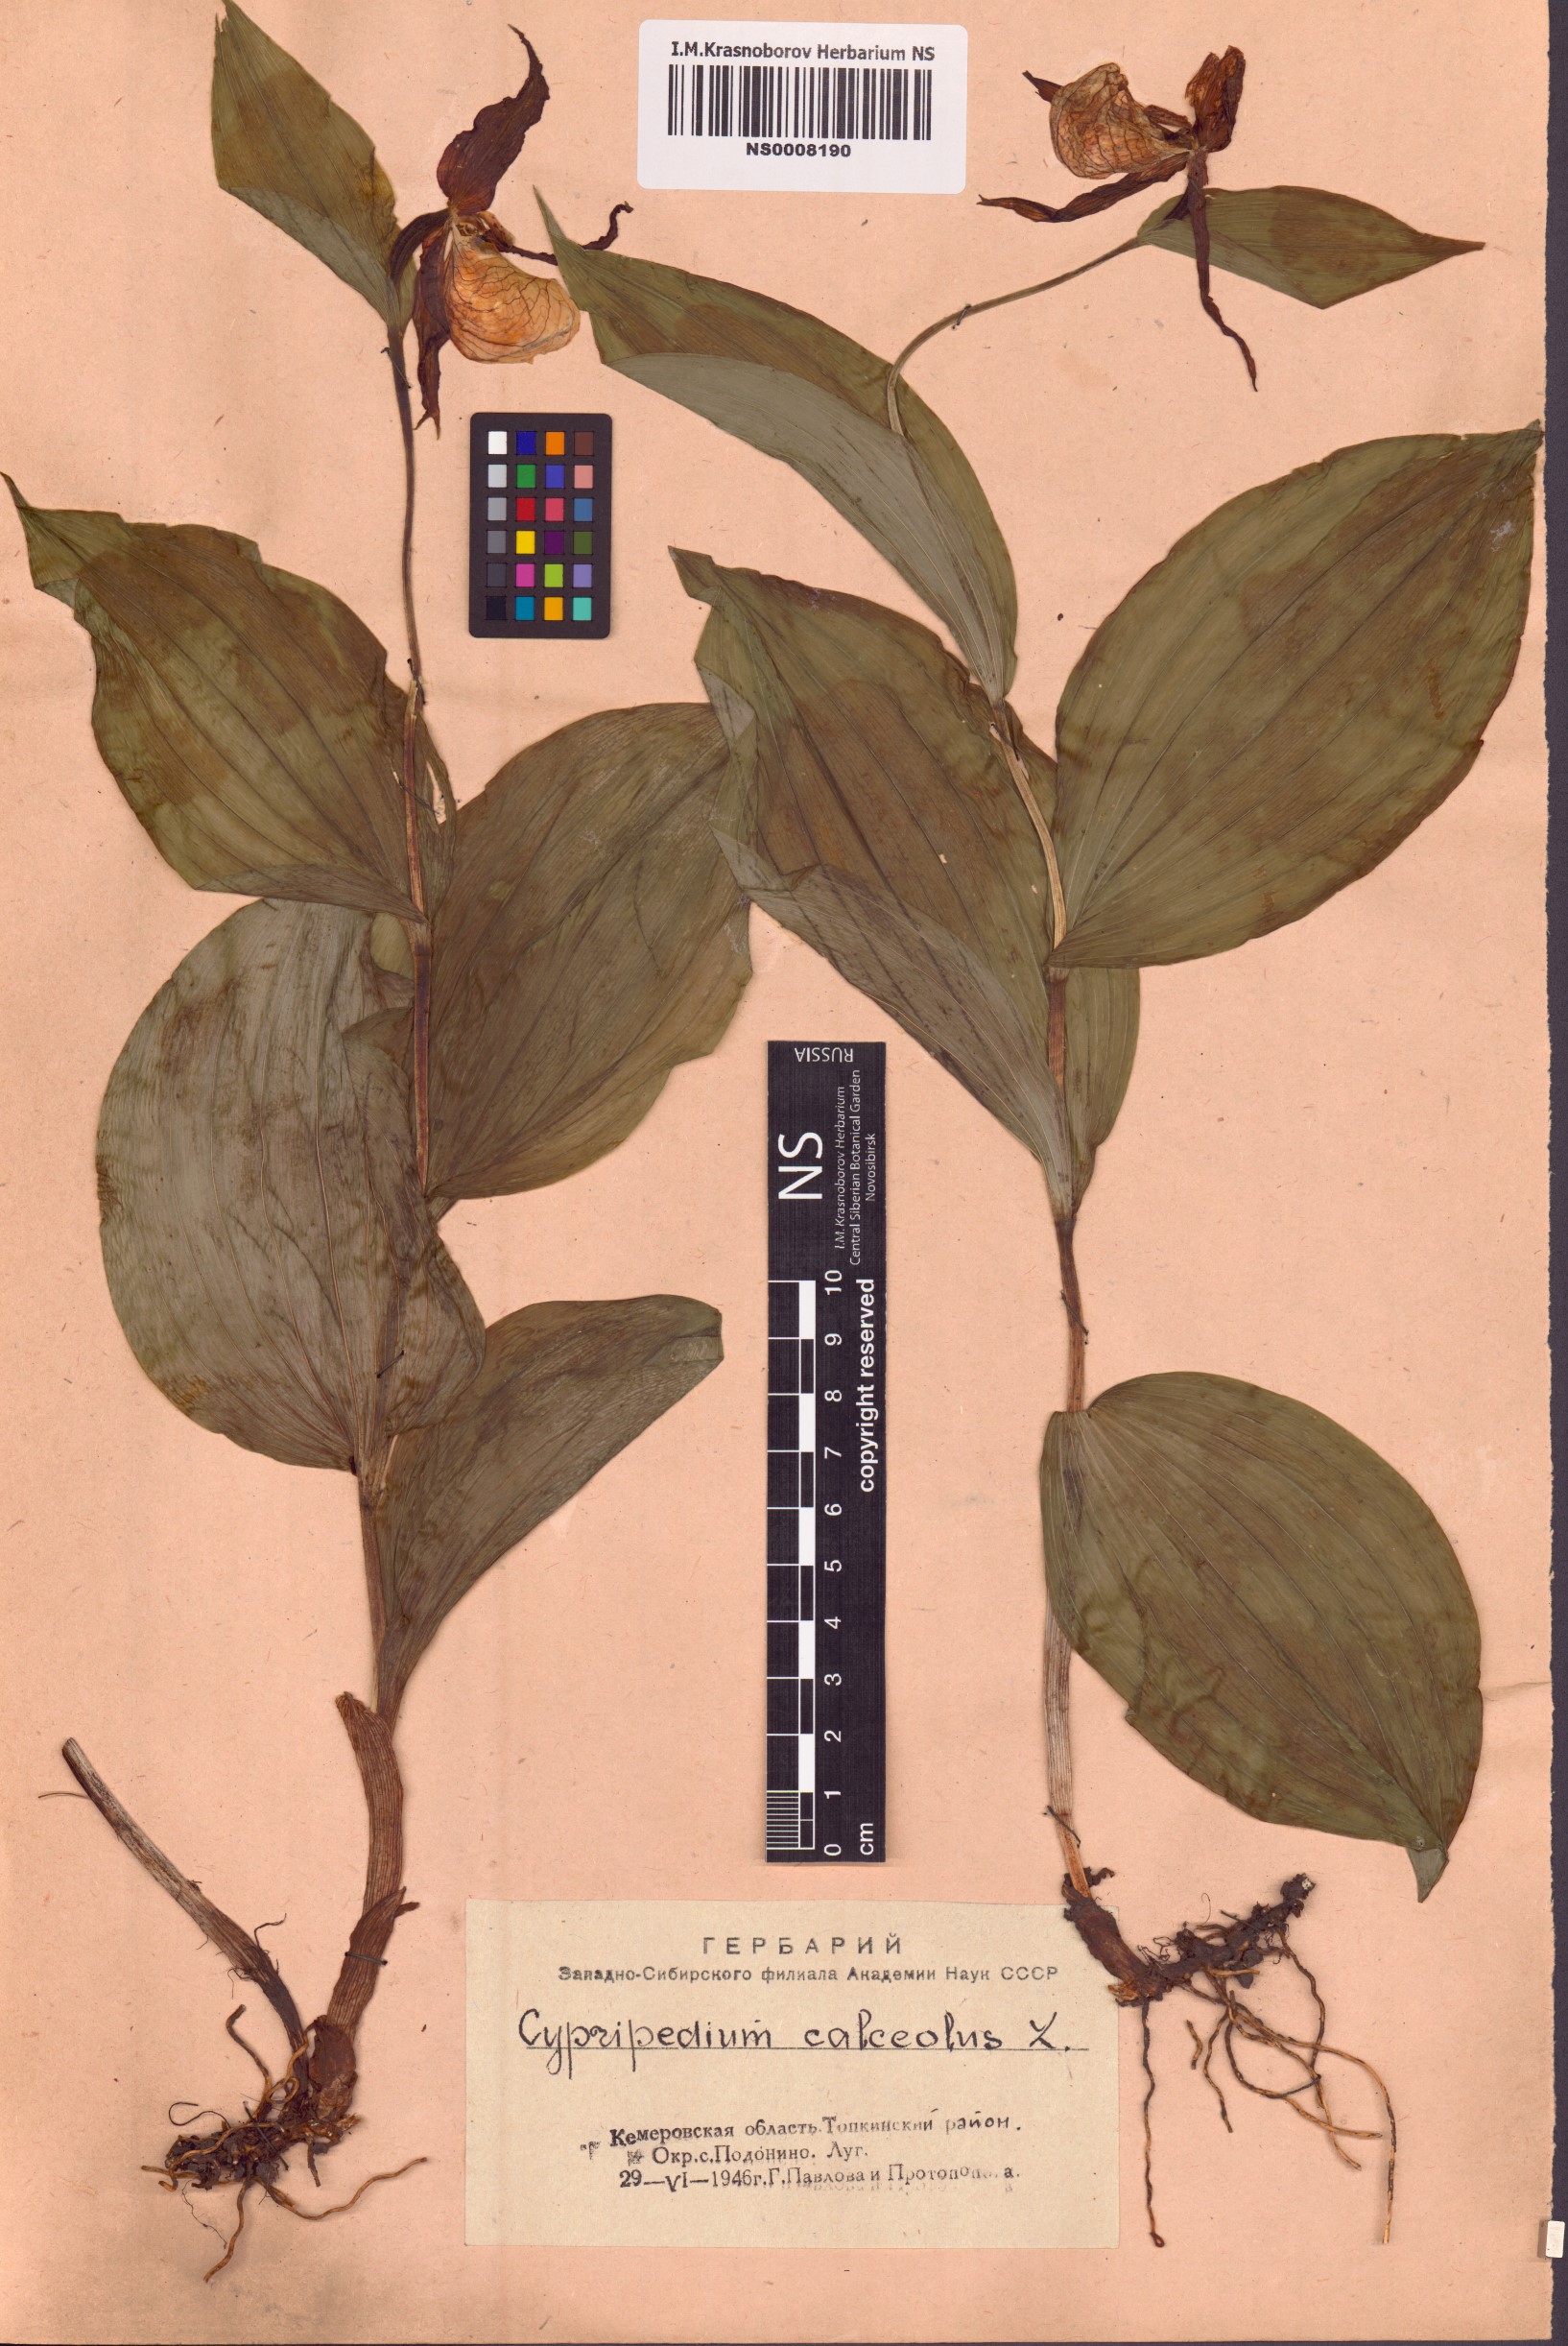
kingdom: Plantae
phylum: Tracheophyta
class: Liliopsida
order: Asparagales
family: Orchidaceae
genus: Cypripedium
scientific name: Cypripedium calceolus
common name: Lady's-slipper
